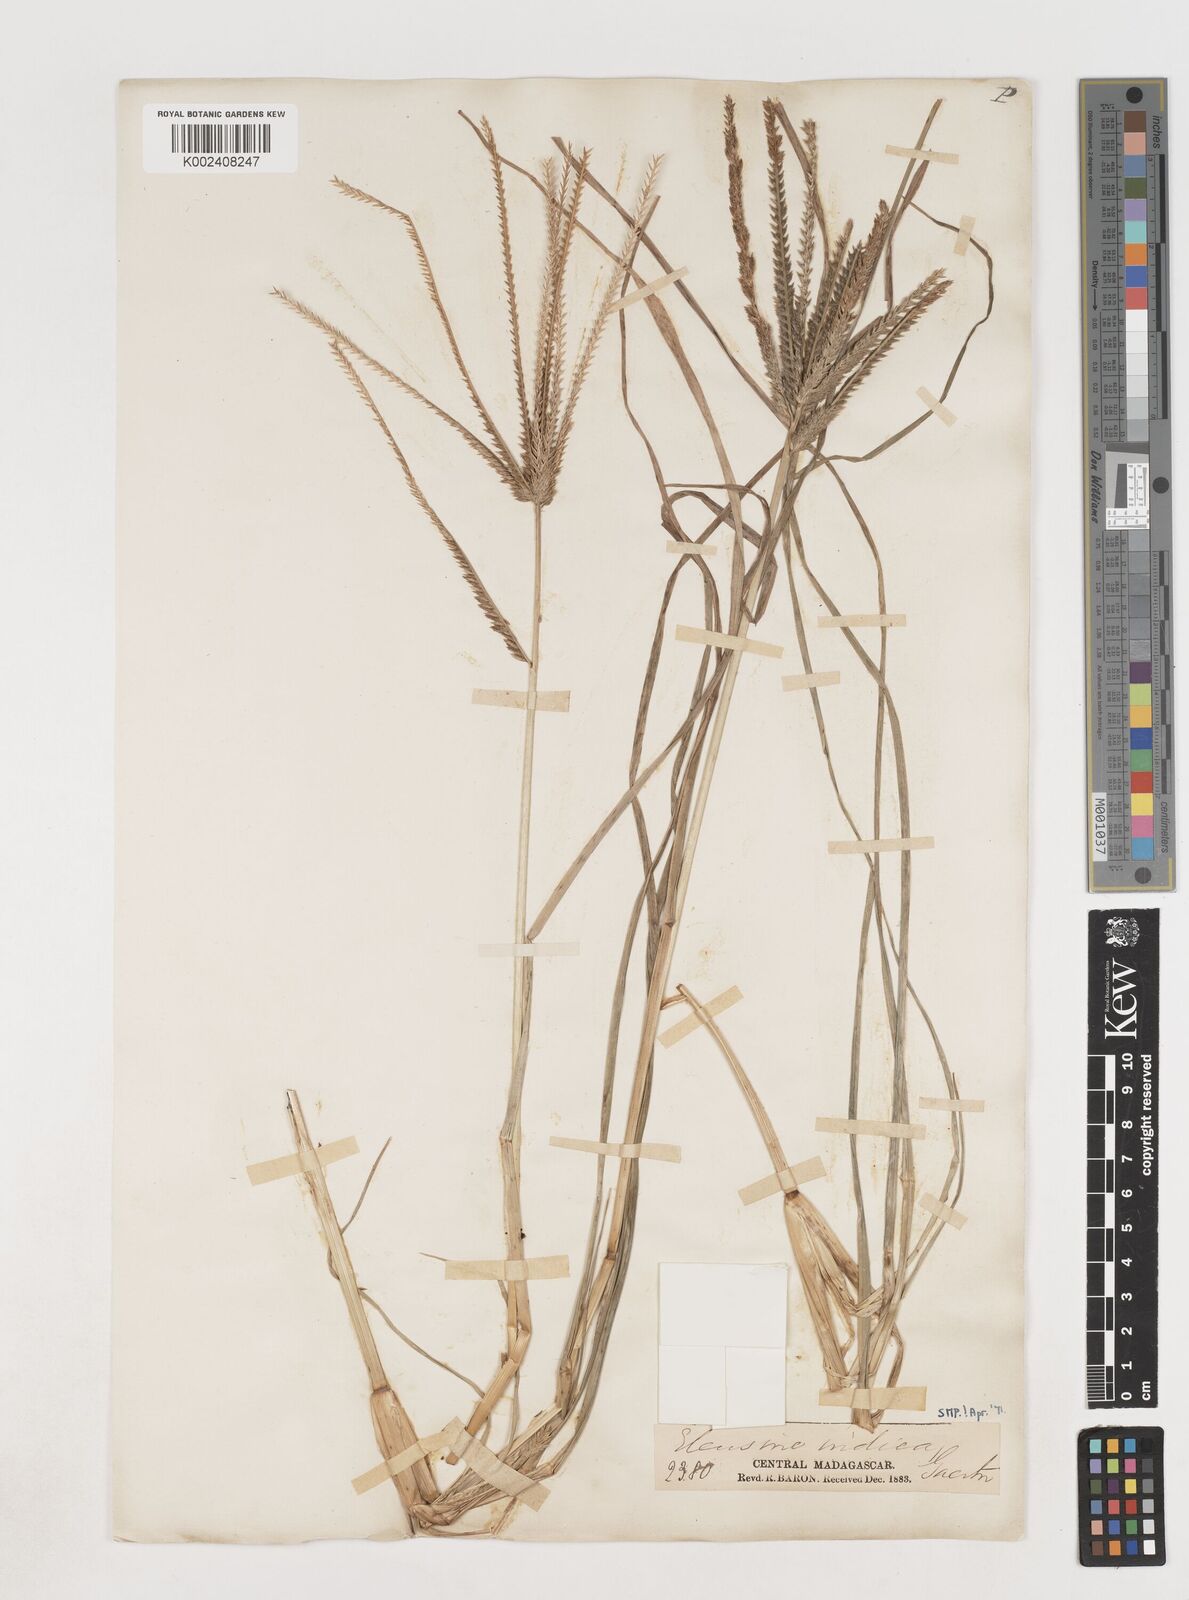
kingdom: Plantae
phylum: Tracheophyta
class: Liliopsida
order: Poales
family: Poaceae
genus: Eleusine
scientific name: Eleusine indica
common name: Yard-grass
